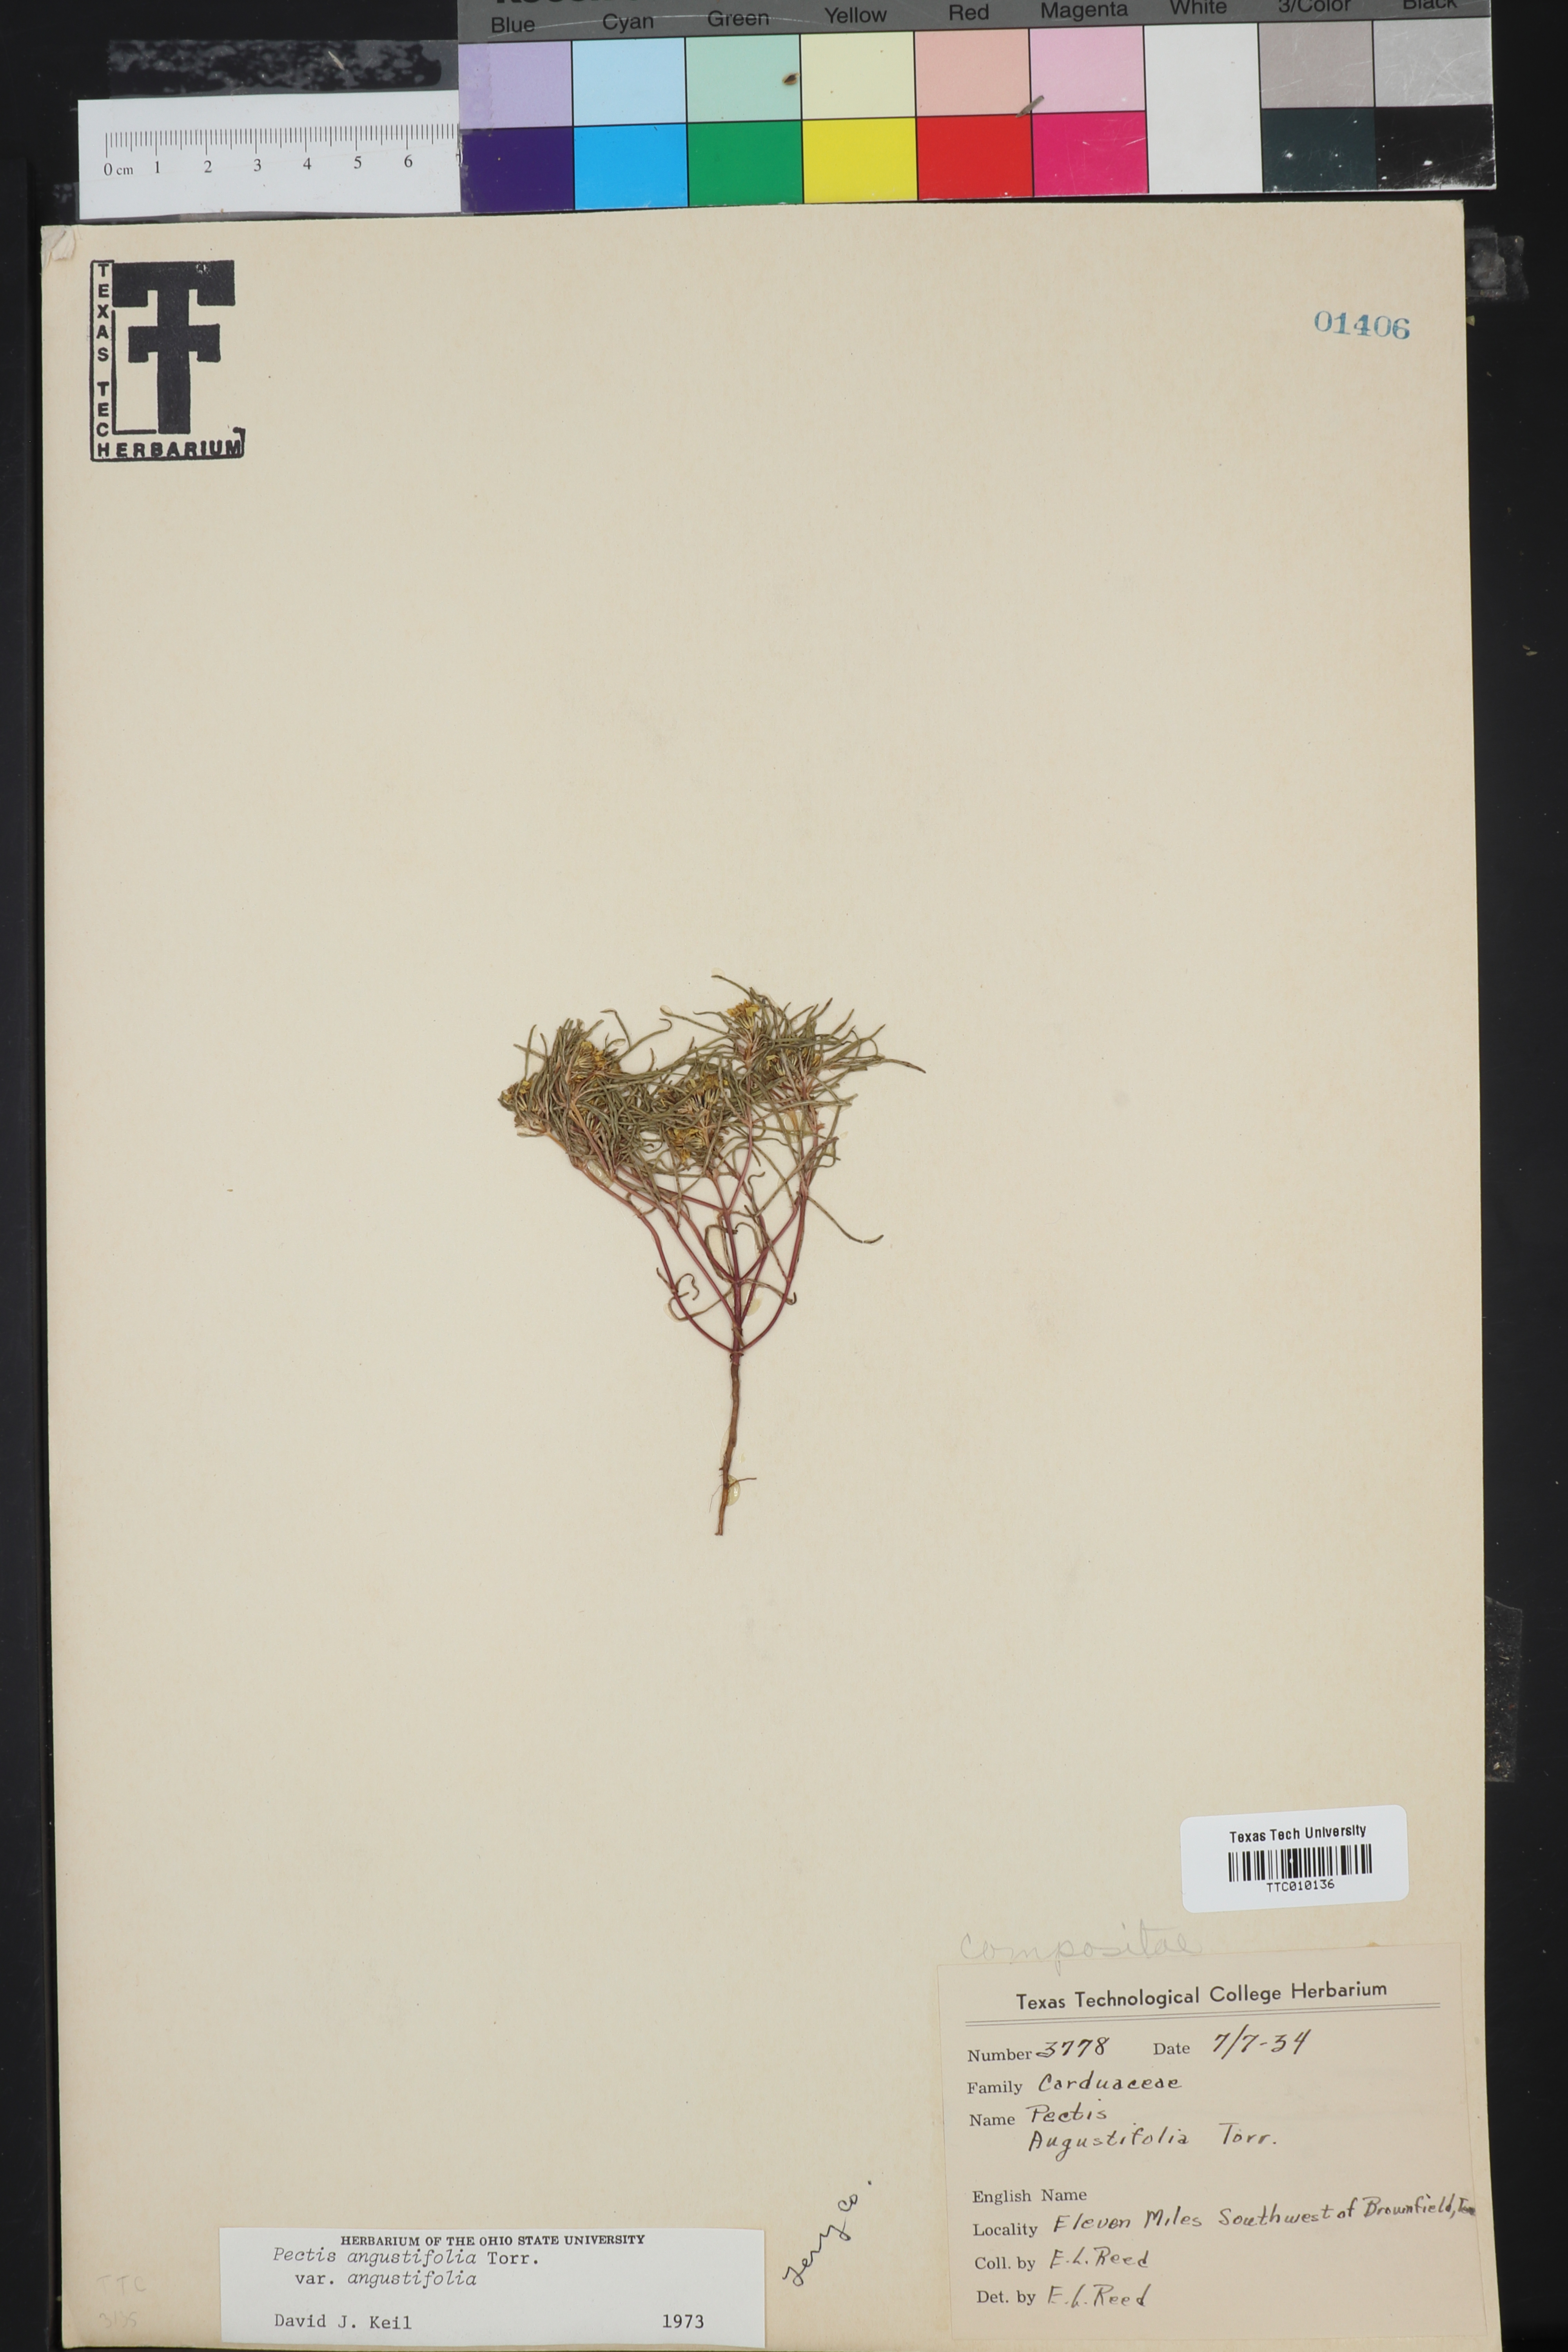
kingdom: Plantae
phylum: Tracheophyta
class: Magnoliopsida
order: Asterales
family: Asteraceae
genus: Pectis
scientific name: Pectis angustifolia
